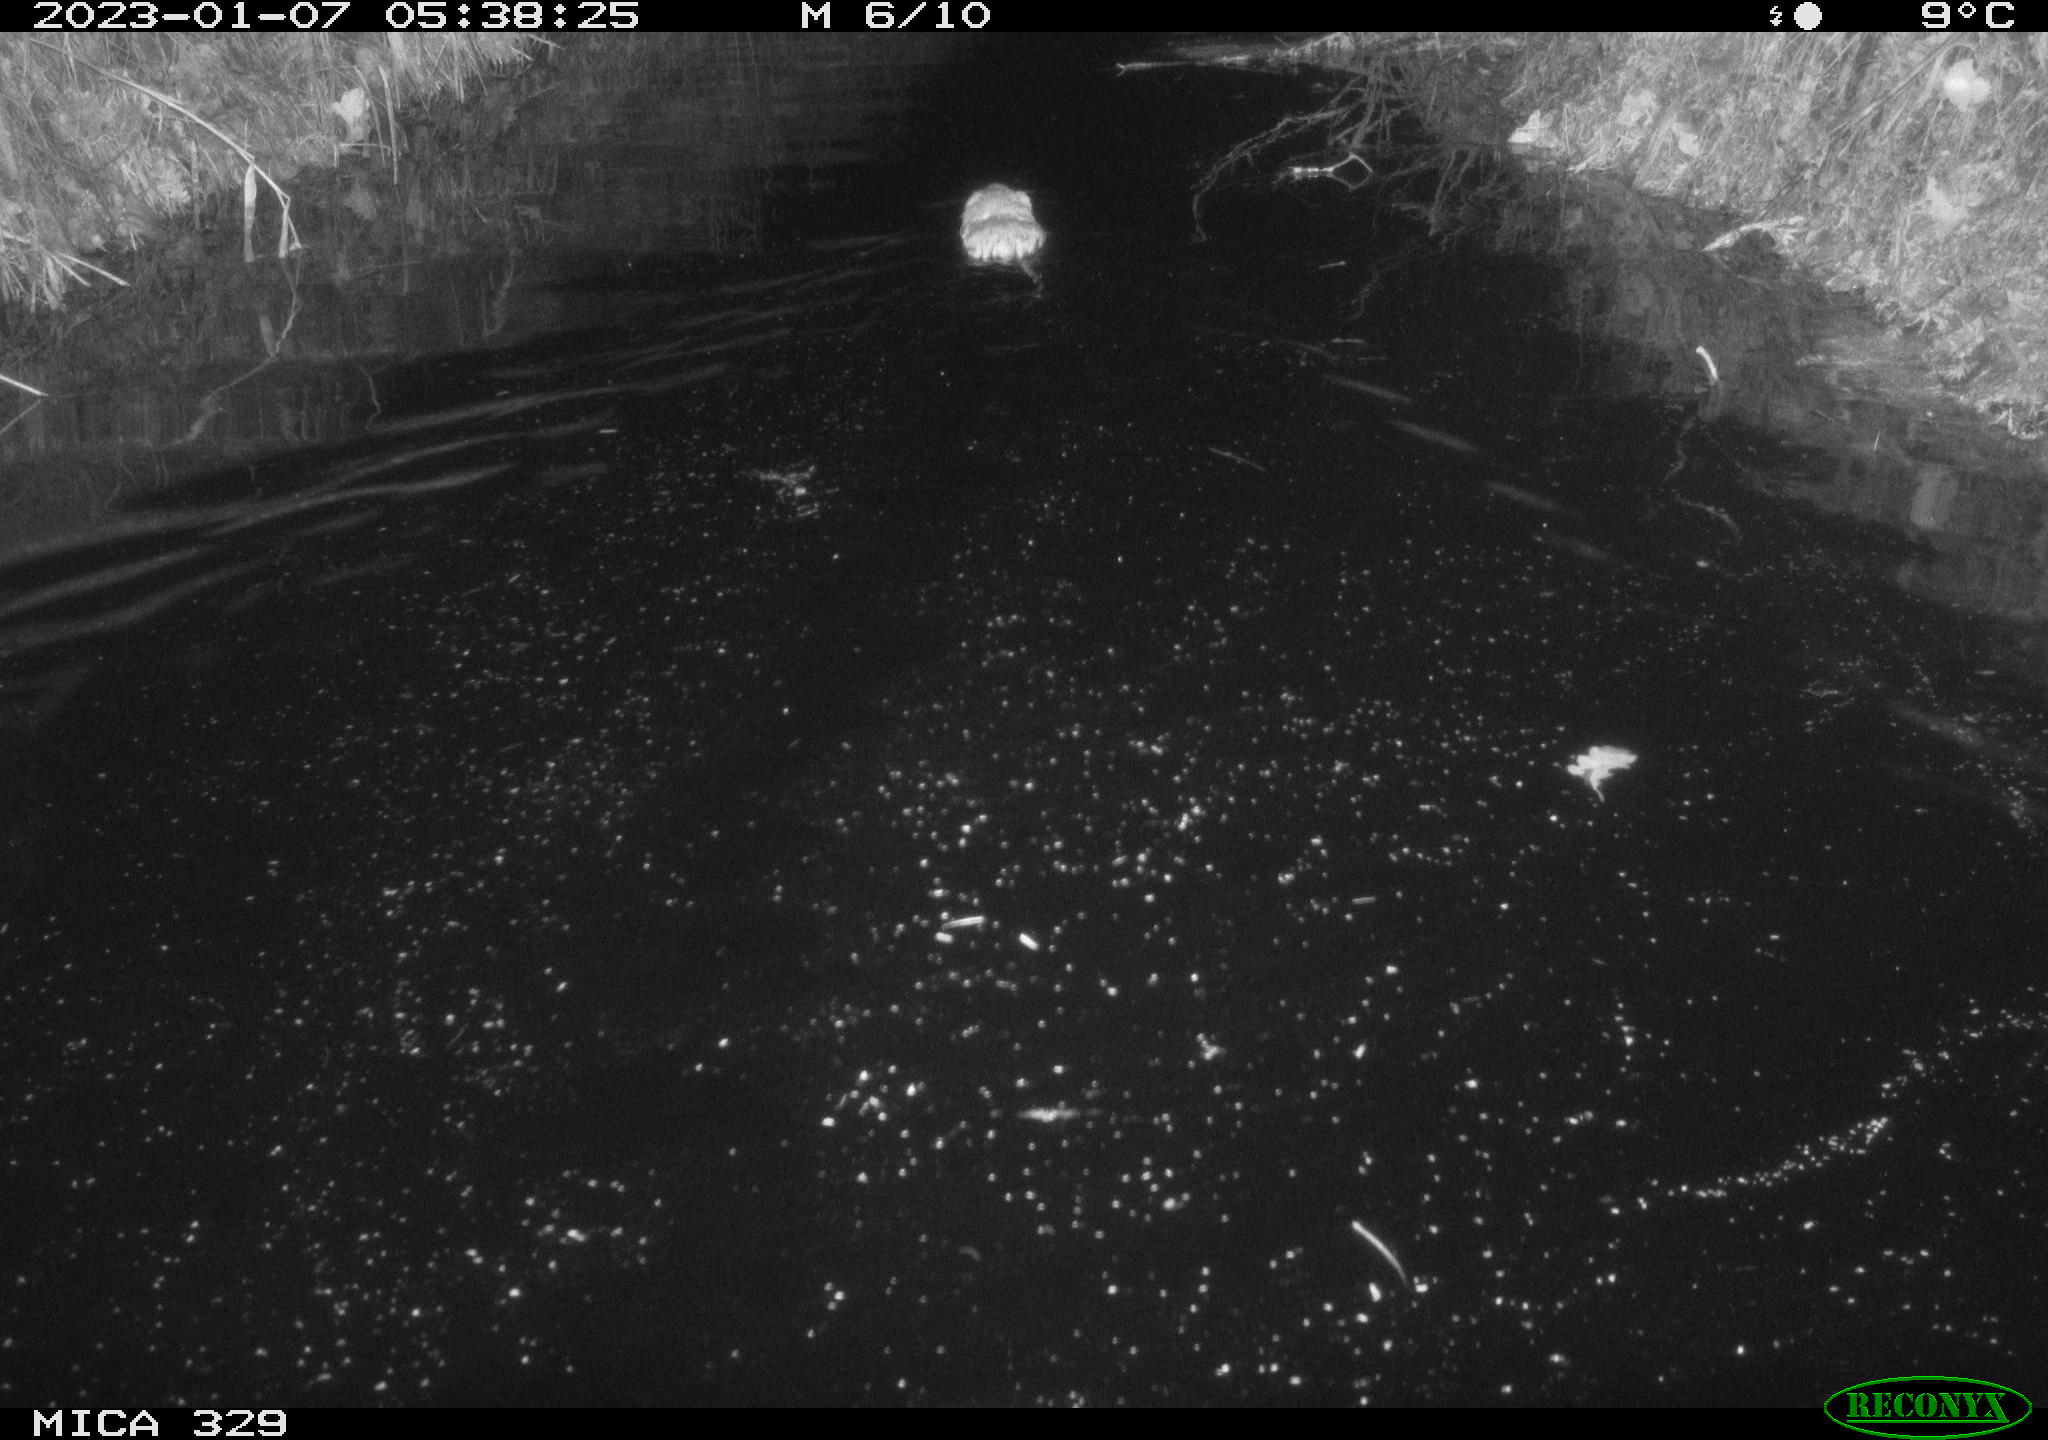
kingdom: Animalia
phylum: Chordata
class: Mammalia
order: Rodentia
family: Cricetidae
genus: Ondatra
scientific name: Ondatra zibethicus
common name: Muskrat
